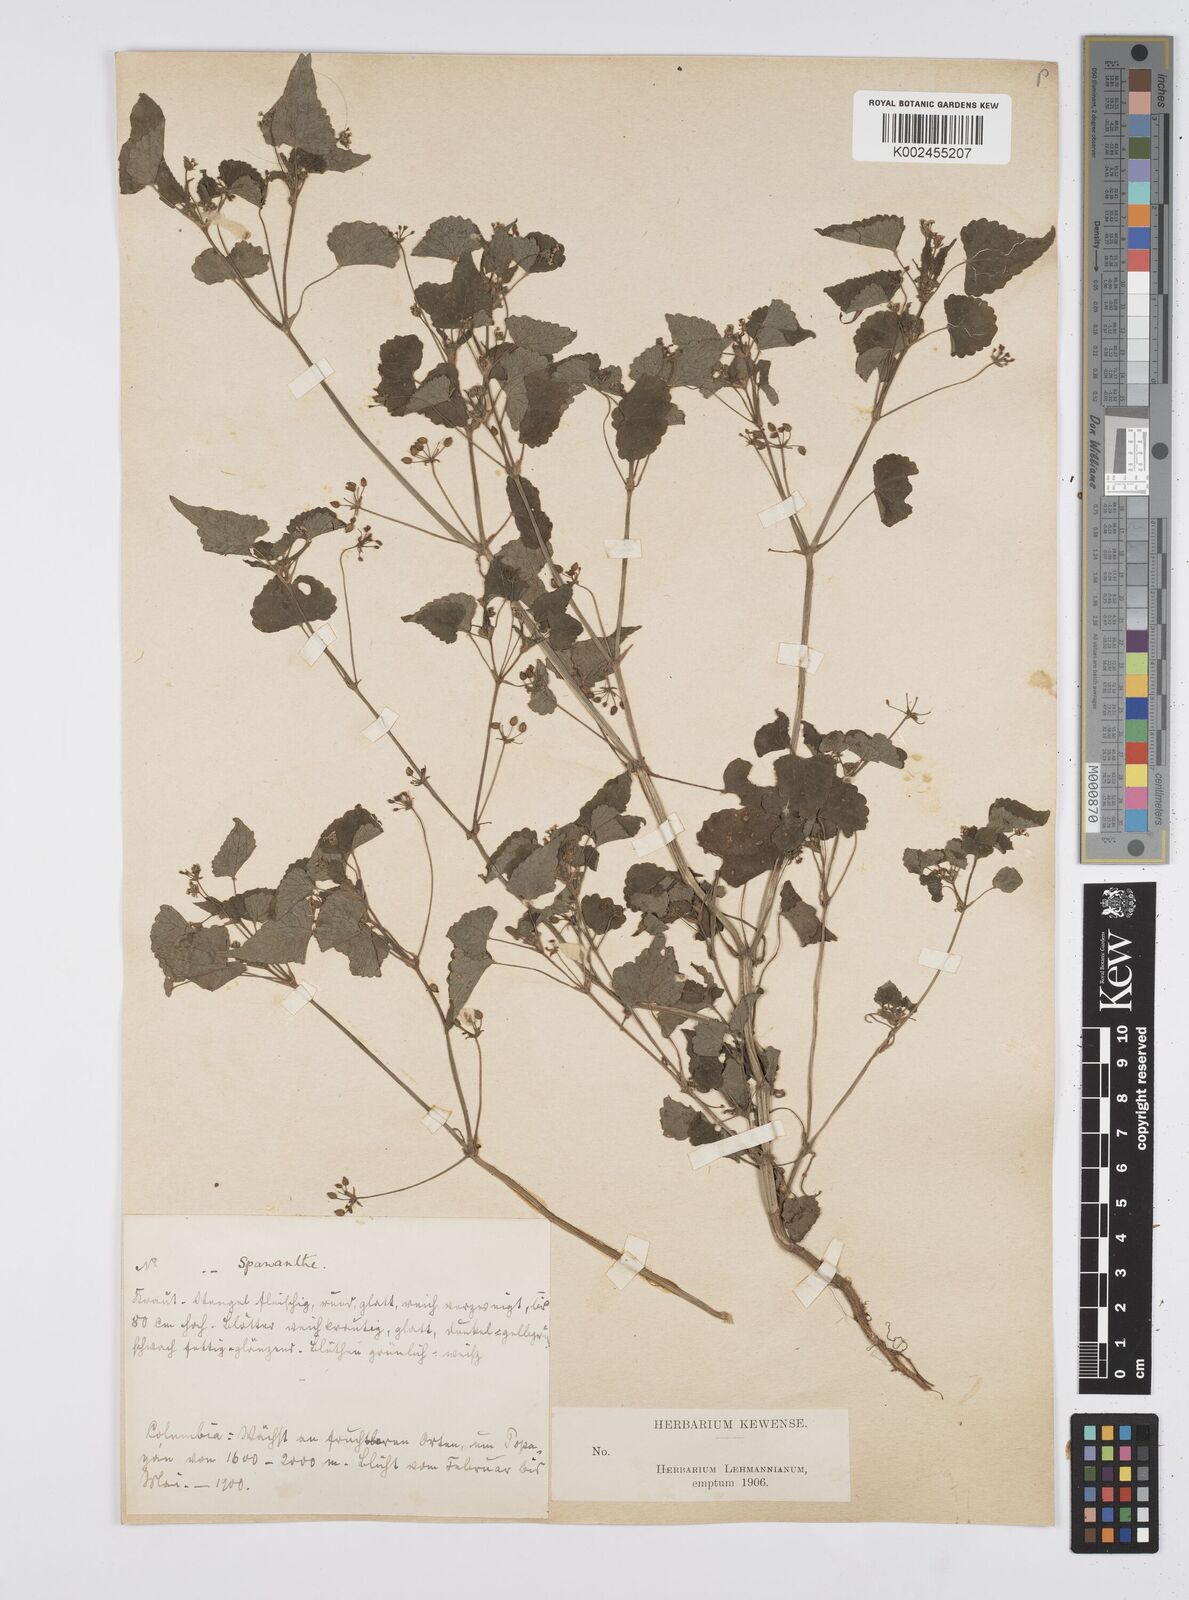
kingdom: Plantae
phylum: Tracheophyta
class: Magnoliopsida
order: Apiales
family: Apiaceae
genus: Azorella
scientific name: Azorella
